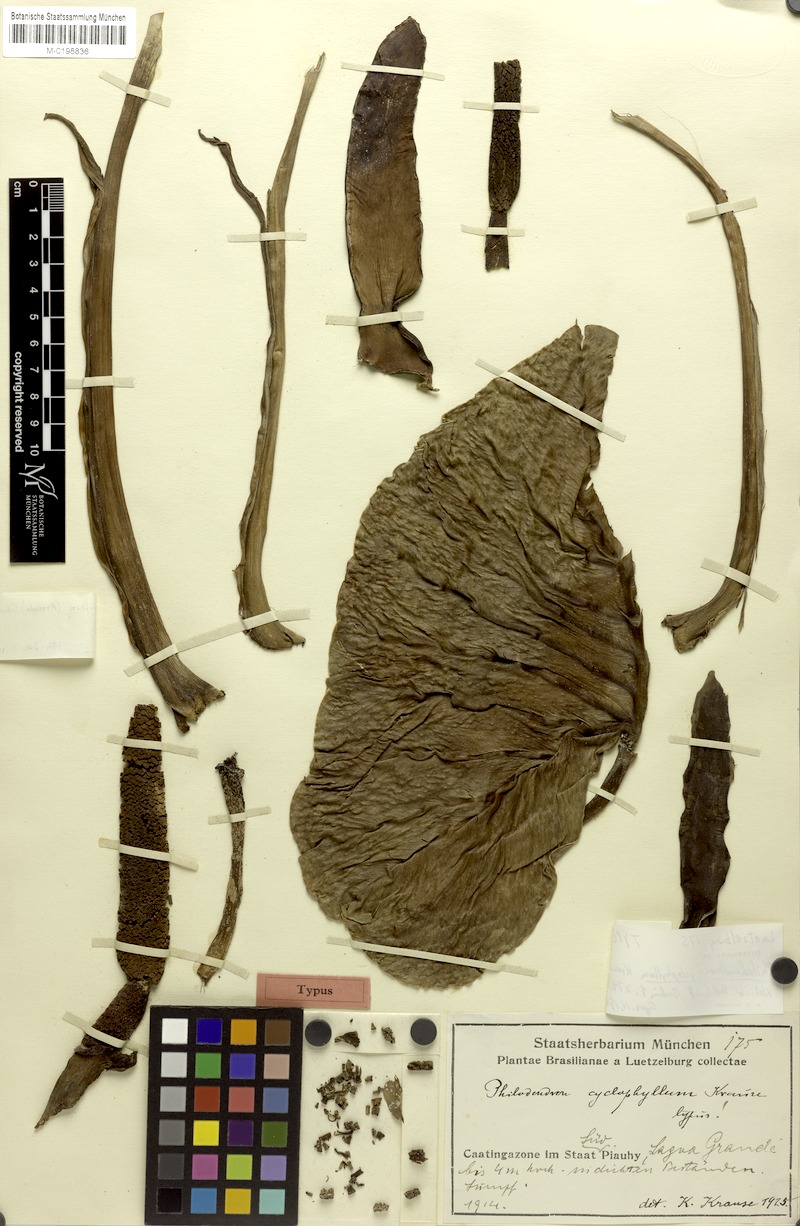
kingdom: Plantae
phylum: Tracheophyta
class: Liliopsida
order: Alismatales
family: Araceae
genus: Montrichardia
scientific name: Montrichardia linifera
